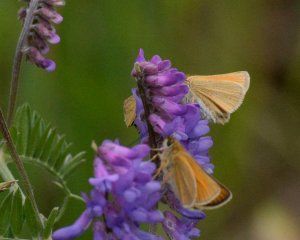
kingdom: Animalia
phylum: Arthropoda
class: Insecta
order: Lepidoptera
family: Hesperiidae
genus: Thymelicus
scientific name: Thymelicus lineola
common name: European Skipper
